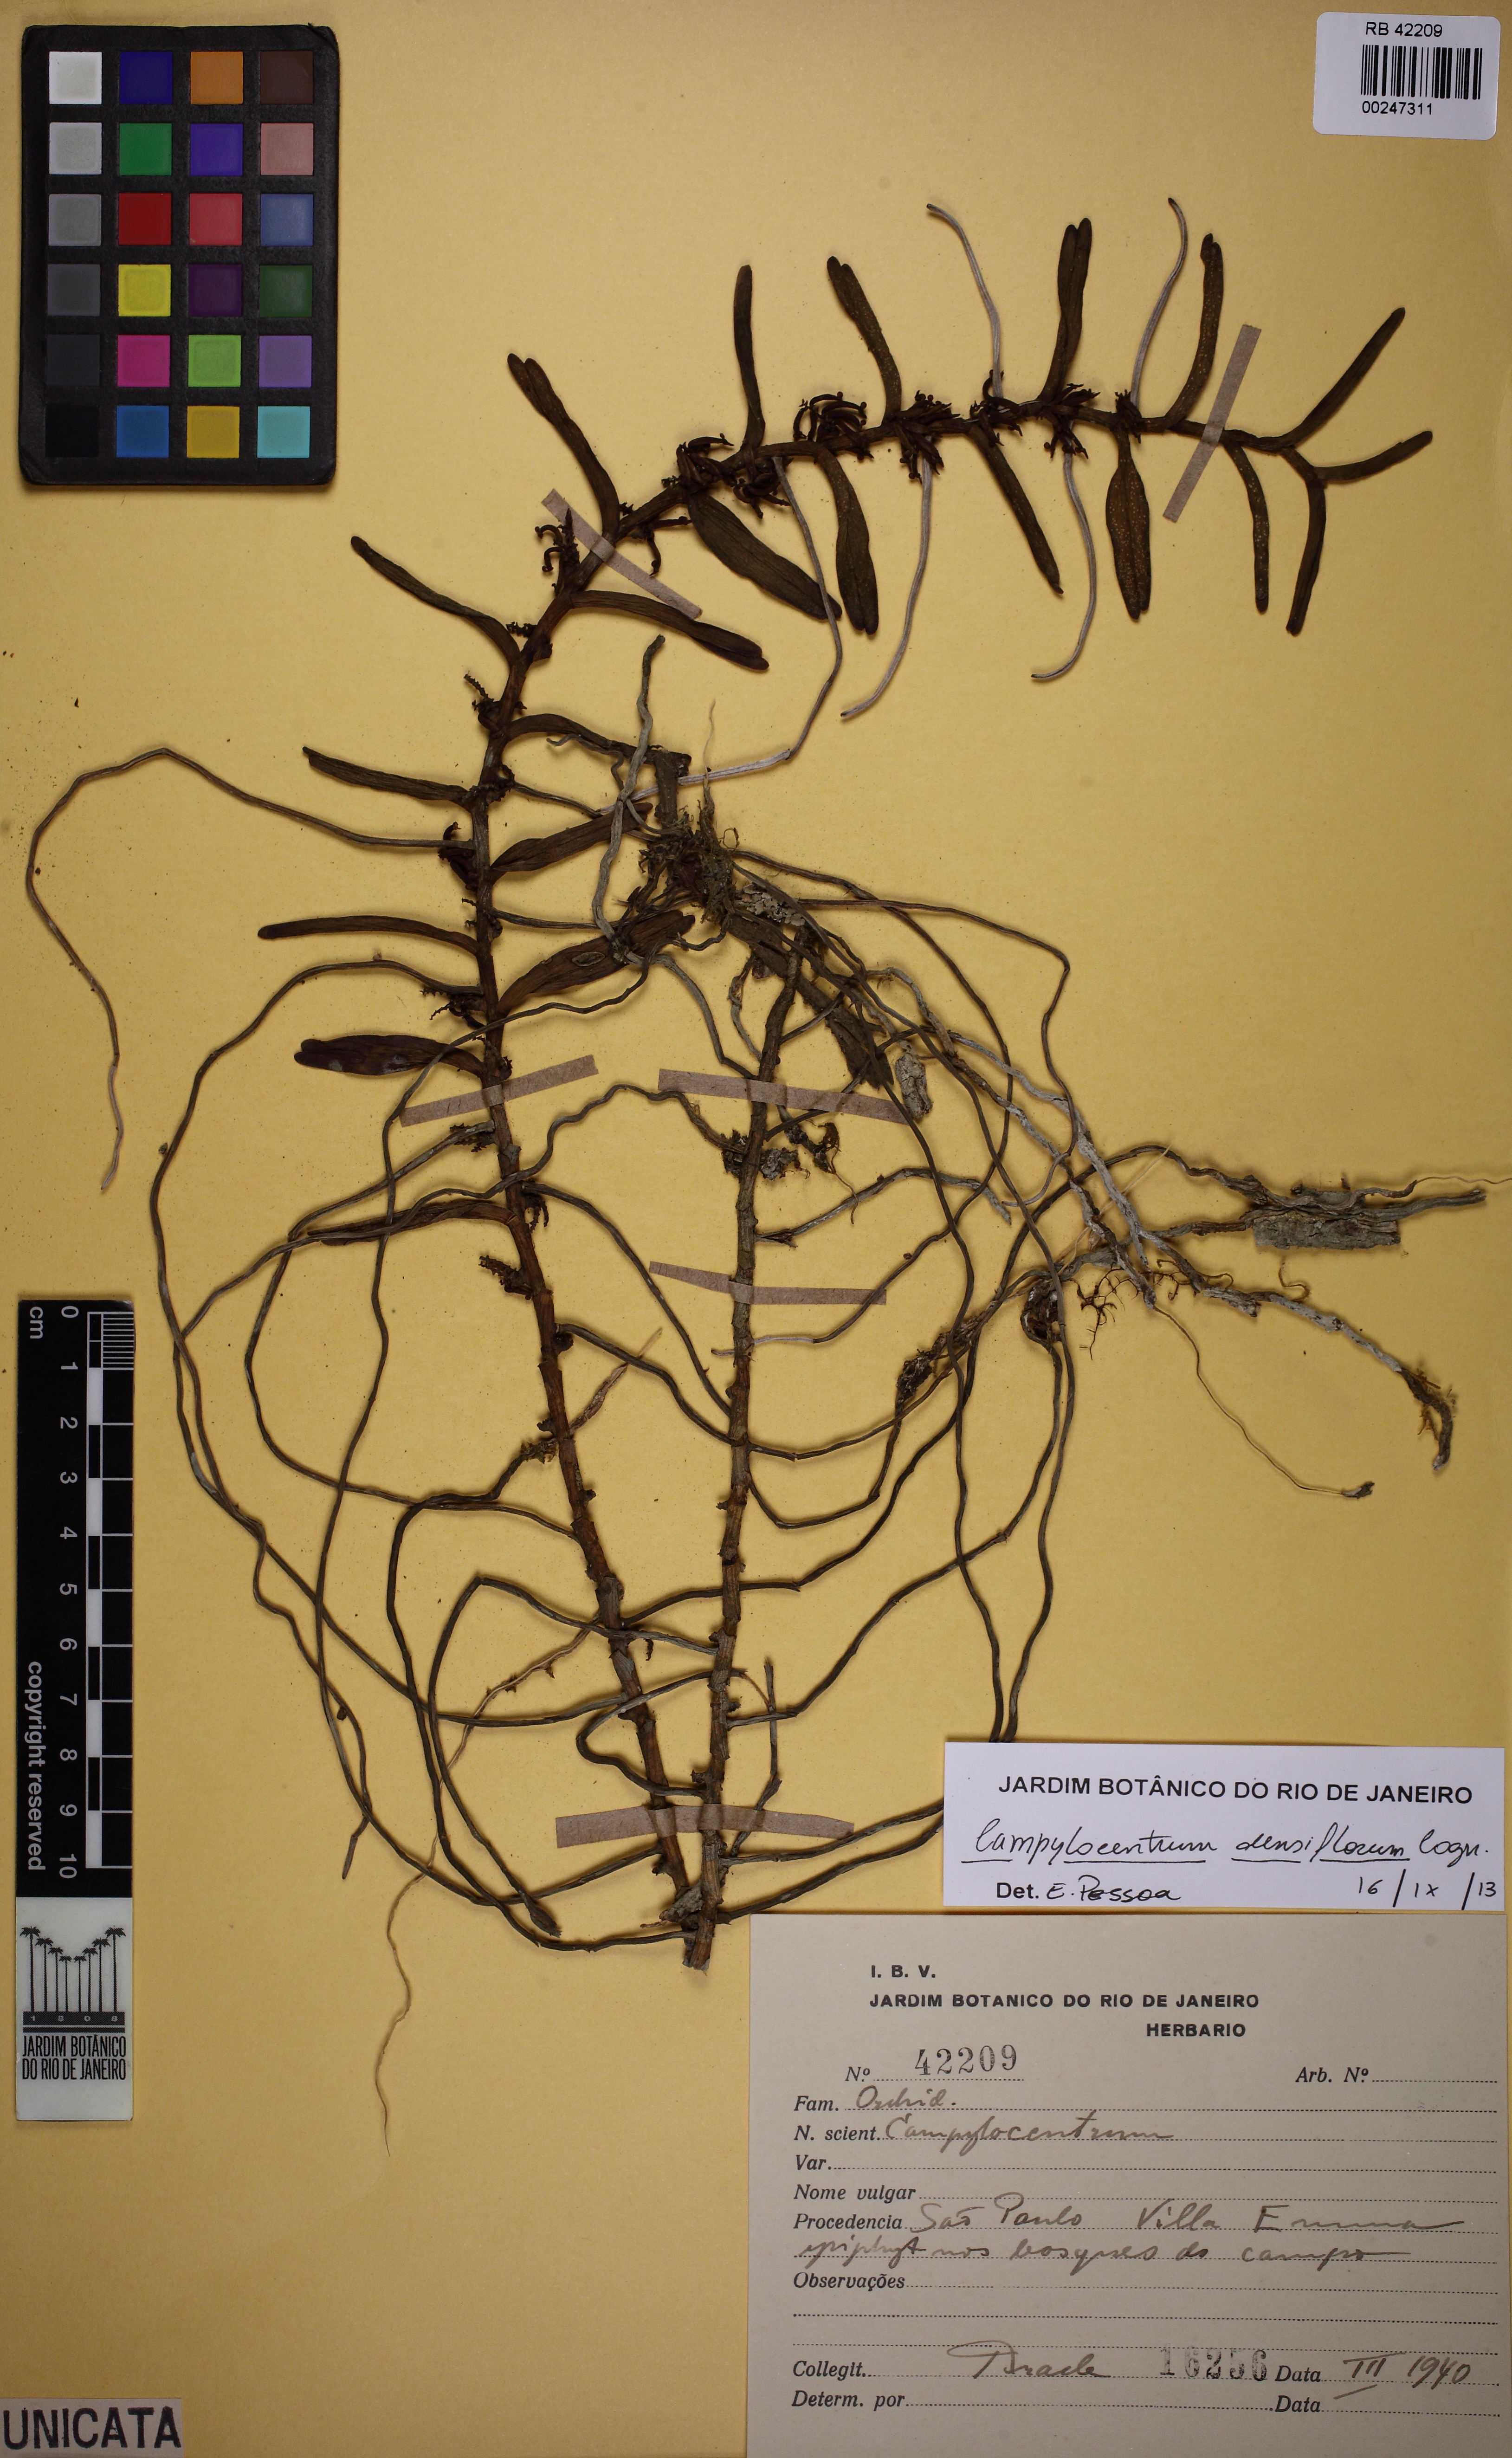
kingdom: Plantae
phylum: Tracheophyta
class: Liliopsida
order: Asparagales
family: Orchidaceae
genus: Campylocentrum
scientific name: Campylocentrum densiflorum
